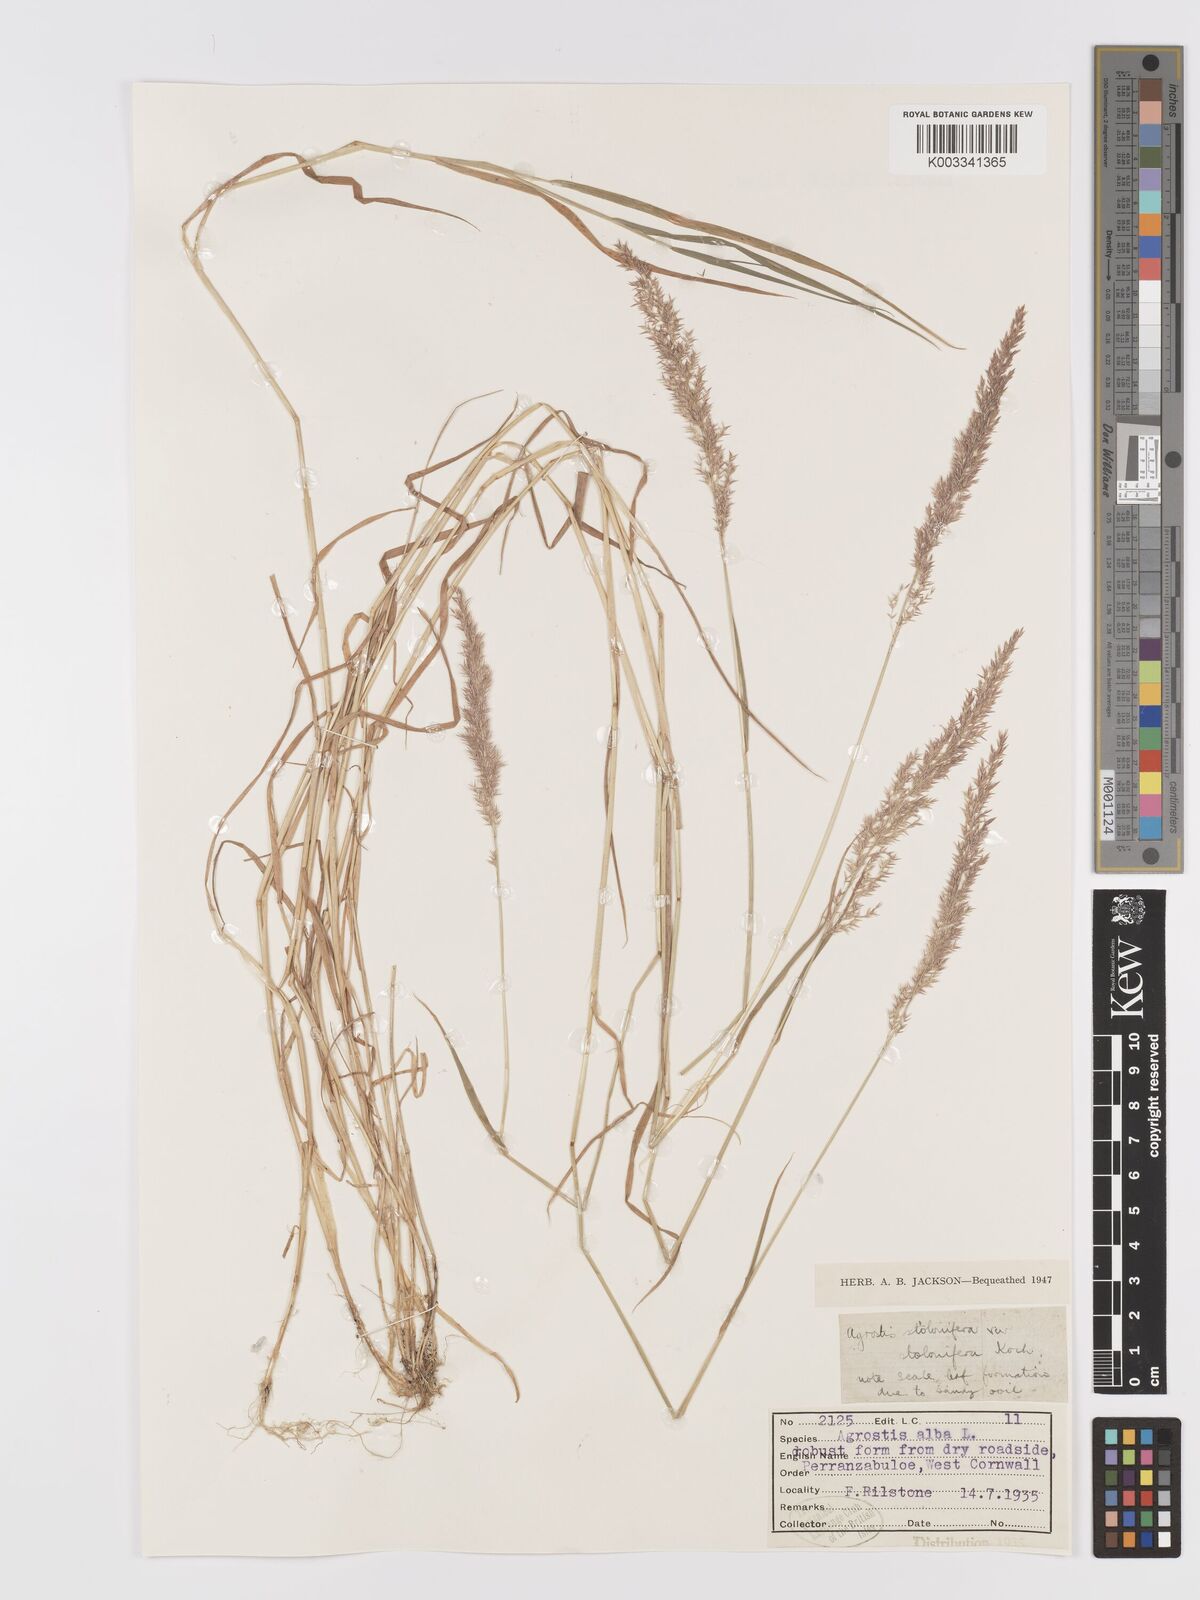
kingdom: Plantae
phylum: Tracheophyta
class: Liliopsida
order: Poales
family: Poaceae
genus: Agrostis
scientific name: Agrostis stolonifera
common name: Creeping bentgrass
